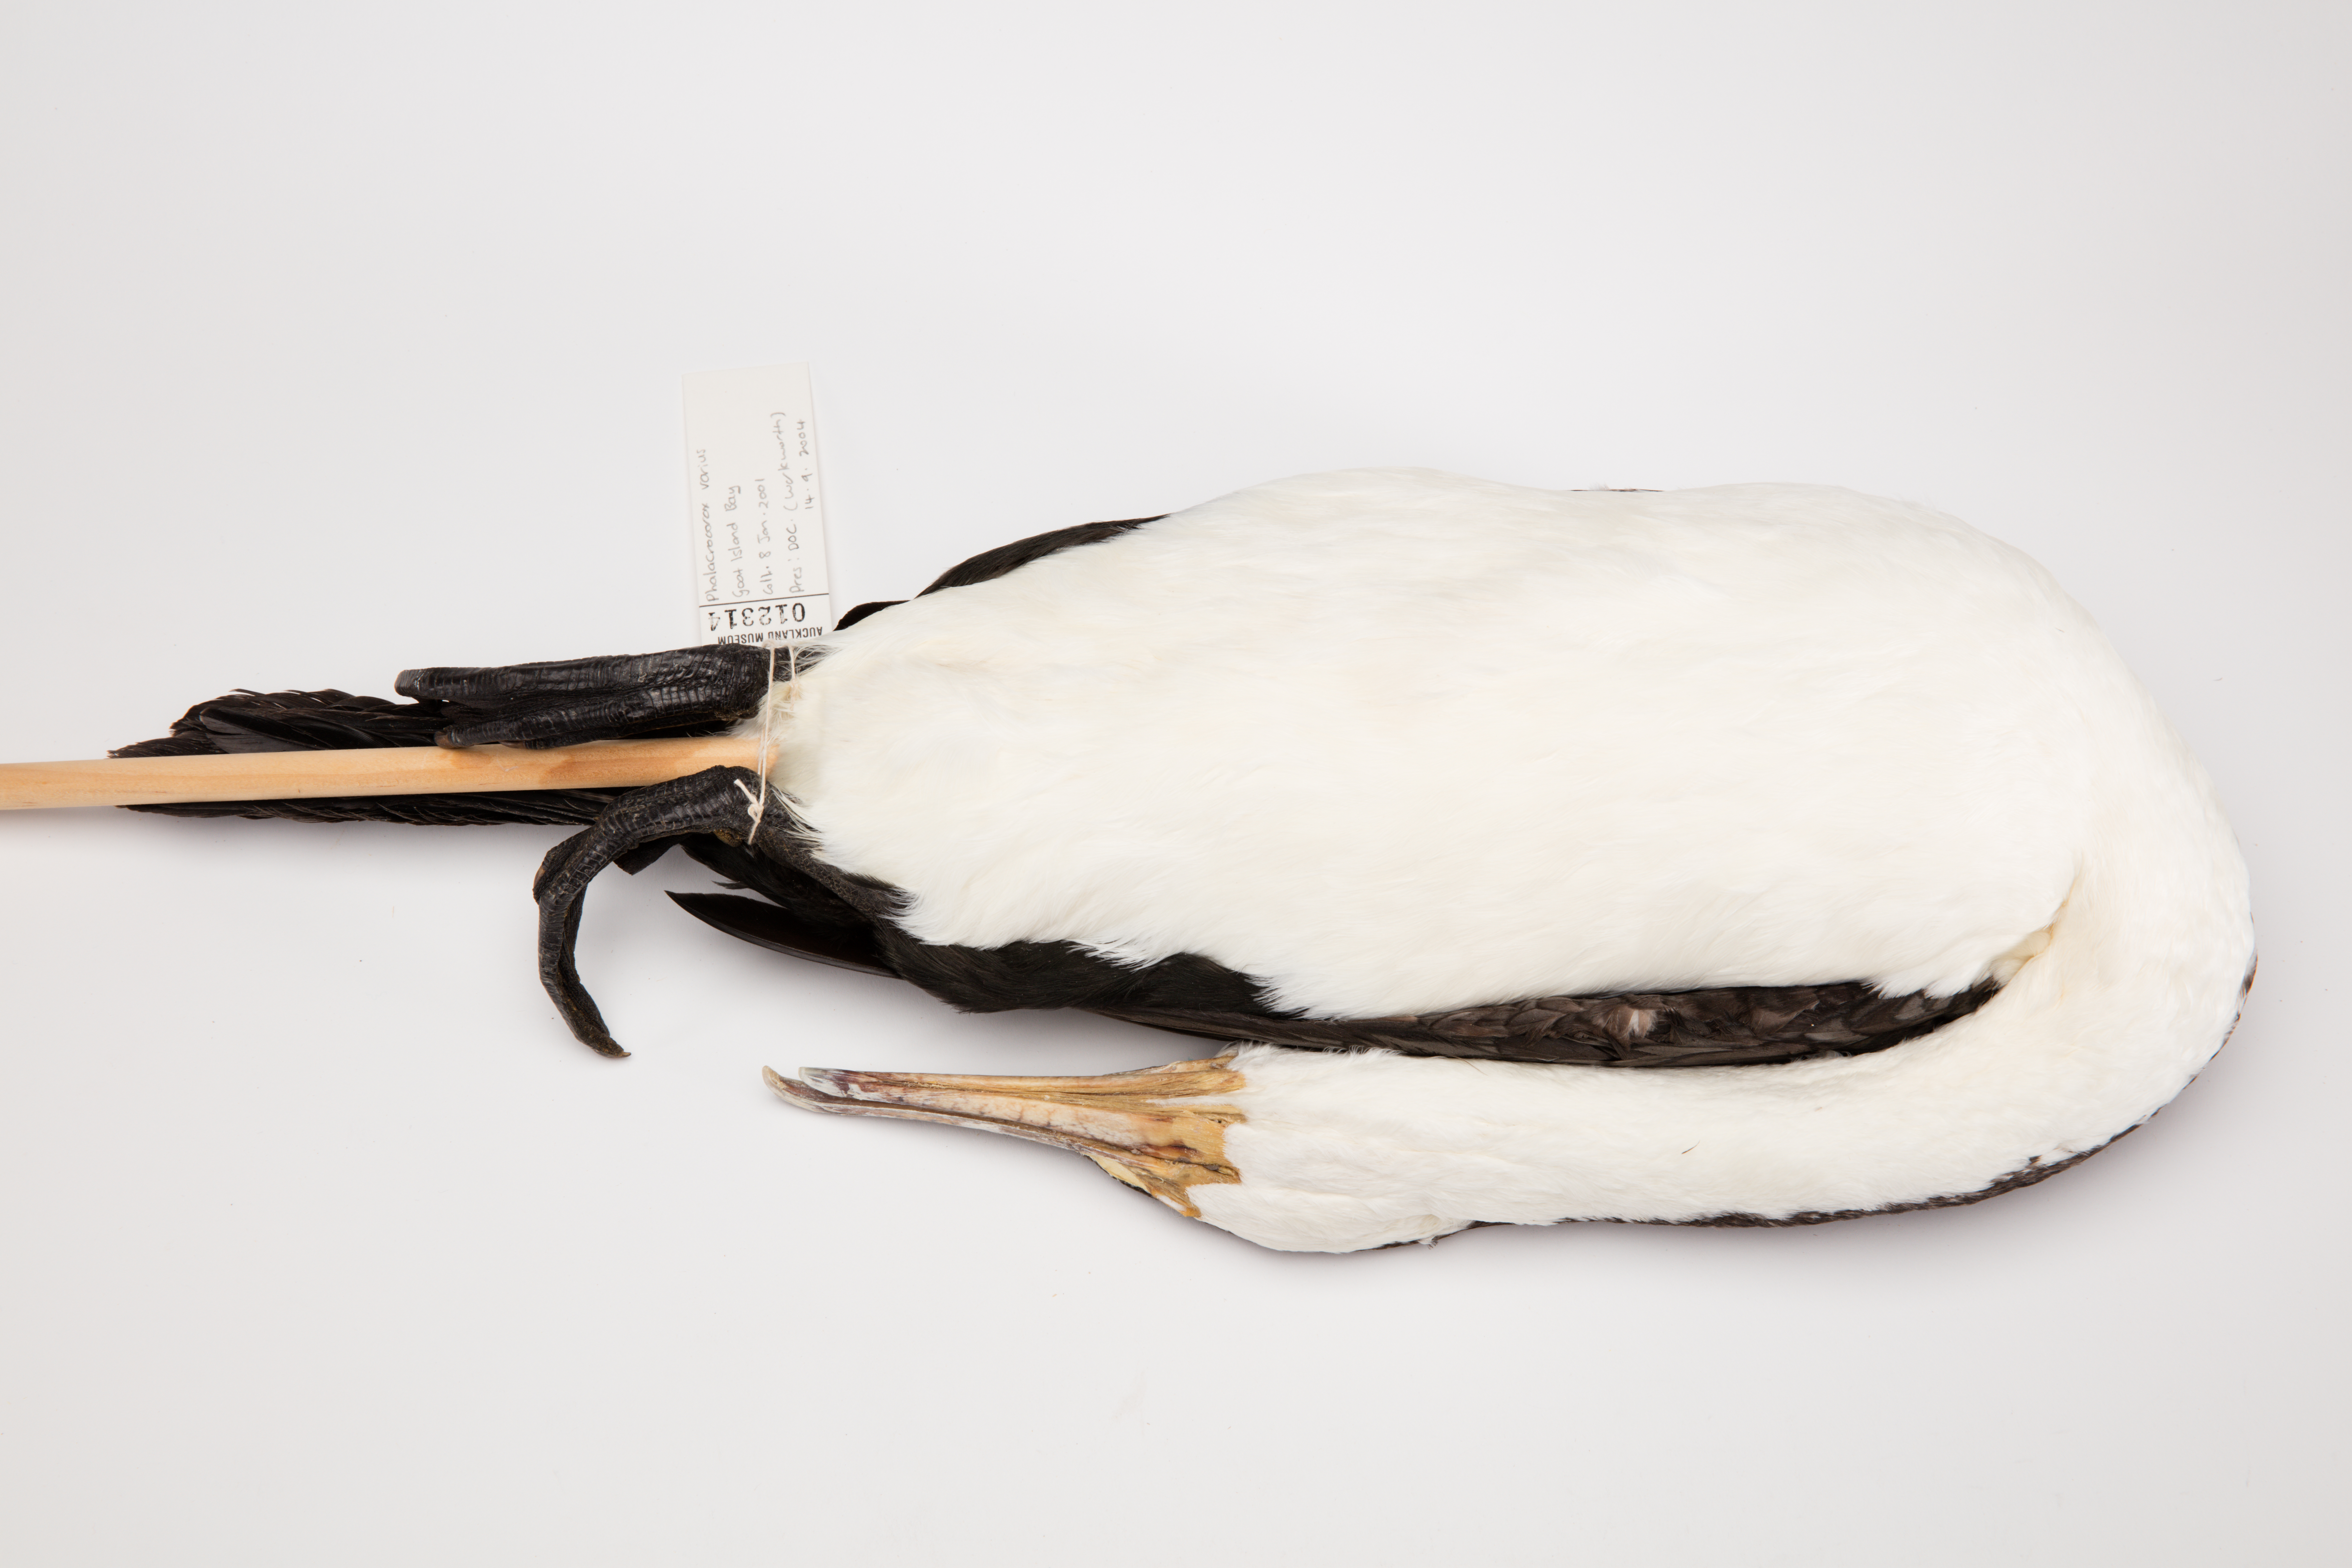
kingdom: Animalia
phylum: Chordata
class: Aves
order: Suliformes
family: Phalacrocoracidae
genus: Phalacrocorax
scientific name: Phalacrocorax varius
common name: Pied cormorant
